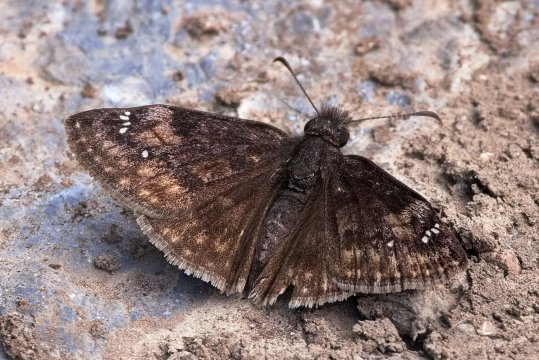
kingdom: Animalia
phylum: Arthropoda
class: Insecta
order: Lepidoptera
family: Hesperiidae
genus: Gesta
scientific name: Gesta
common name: Columbine Duskywing
